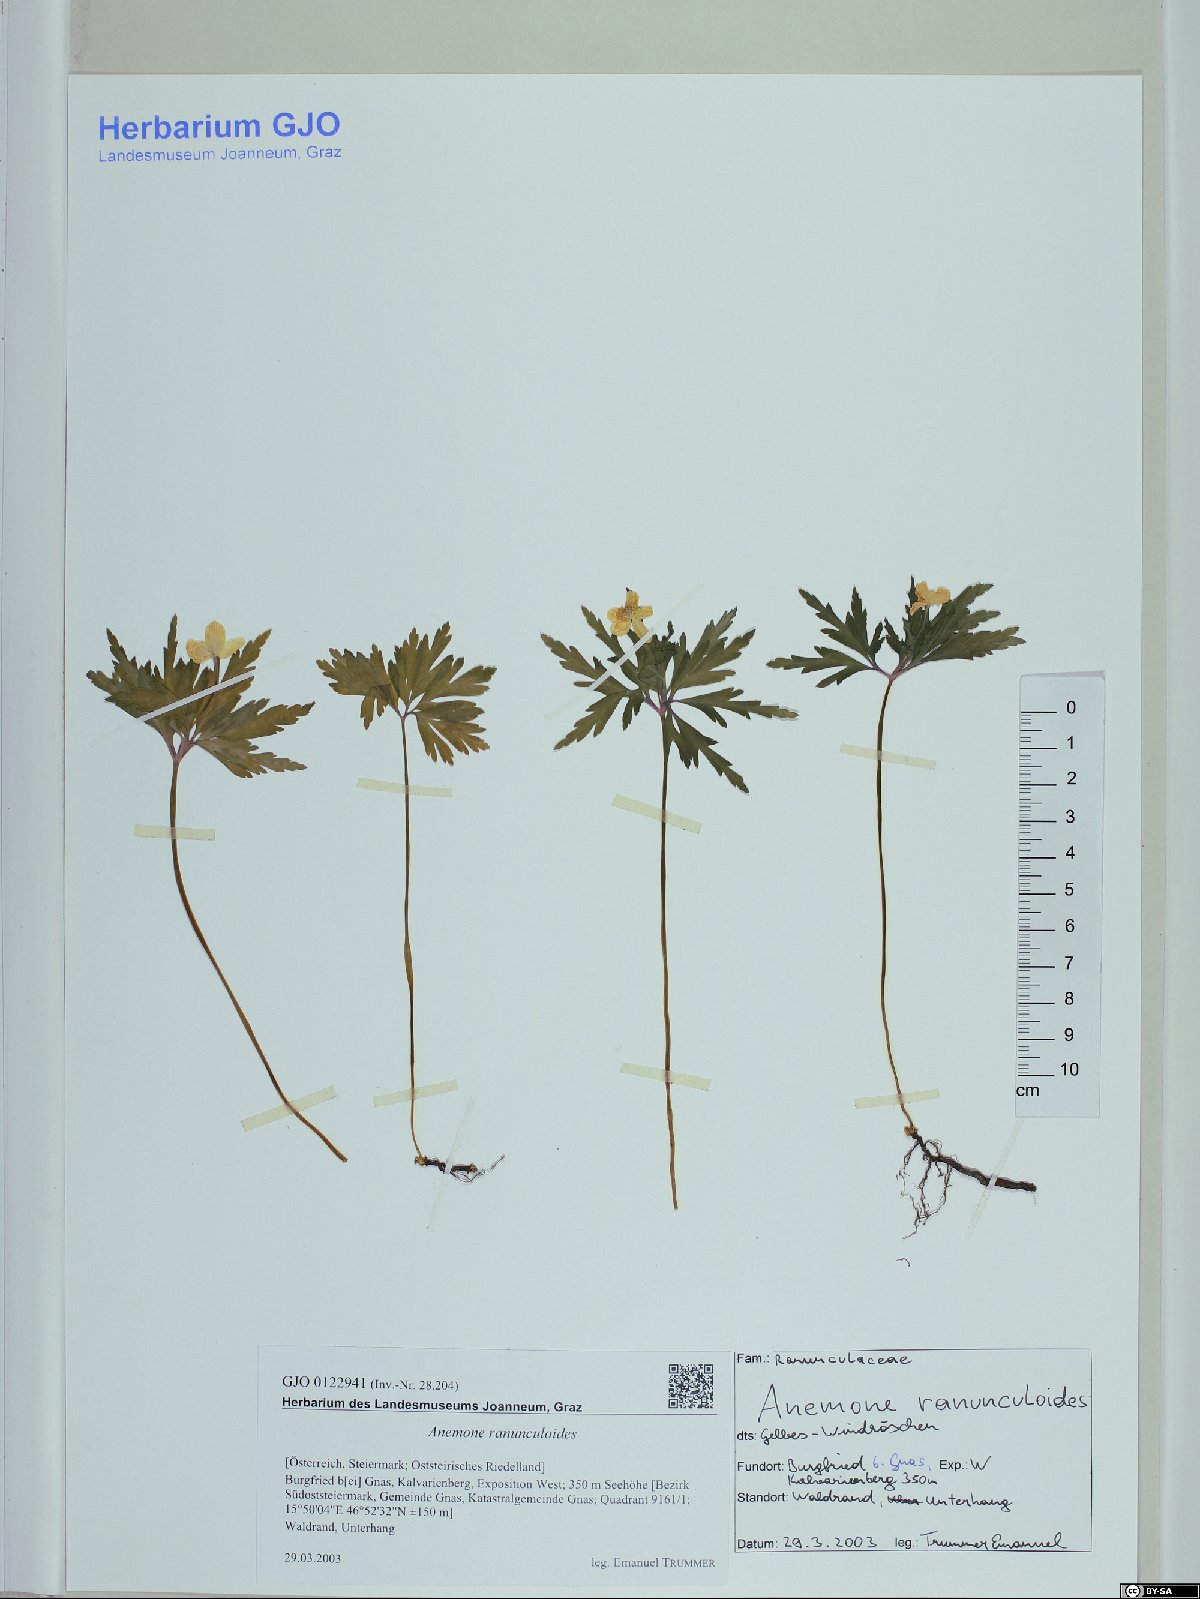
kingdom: Plantae
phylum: Tracheophyta
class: Magnoliopsida
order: Ranunculales
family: Ranunculaceae
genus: Anemone
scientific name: Anemone ranunculoides
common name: Yellow anemone
